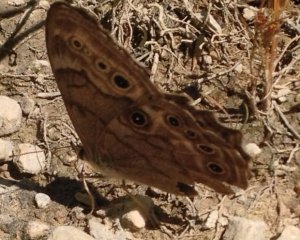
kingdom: Animalia
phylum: Arthropoda
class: Insecta
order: Lepidoptera
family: Nymphalidae
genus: Lethe
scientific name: Lethe anthedon
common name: Northern Pearly-Eye
